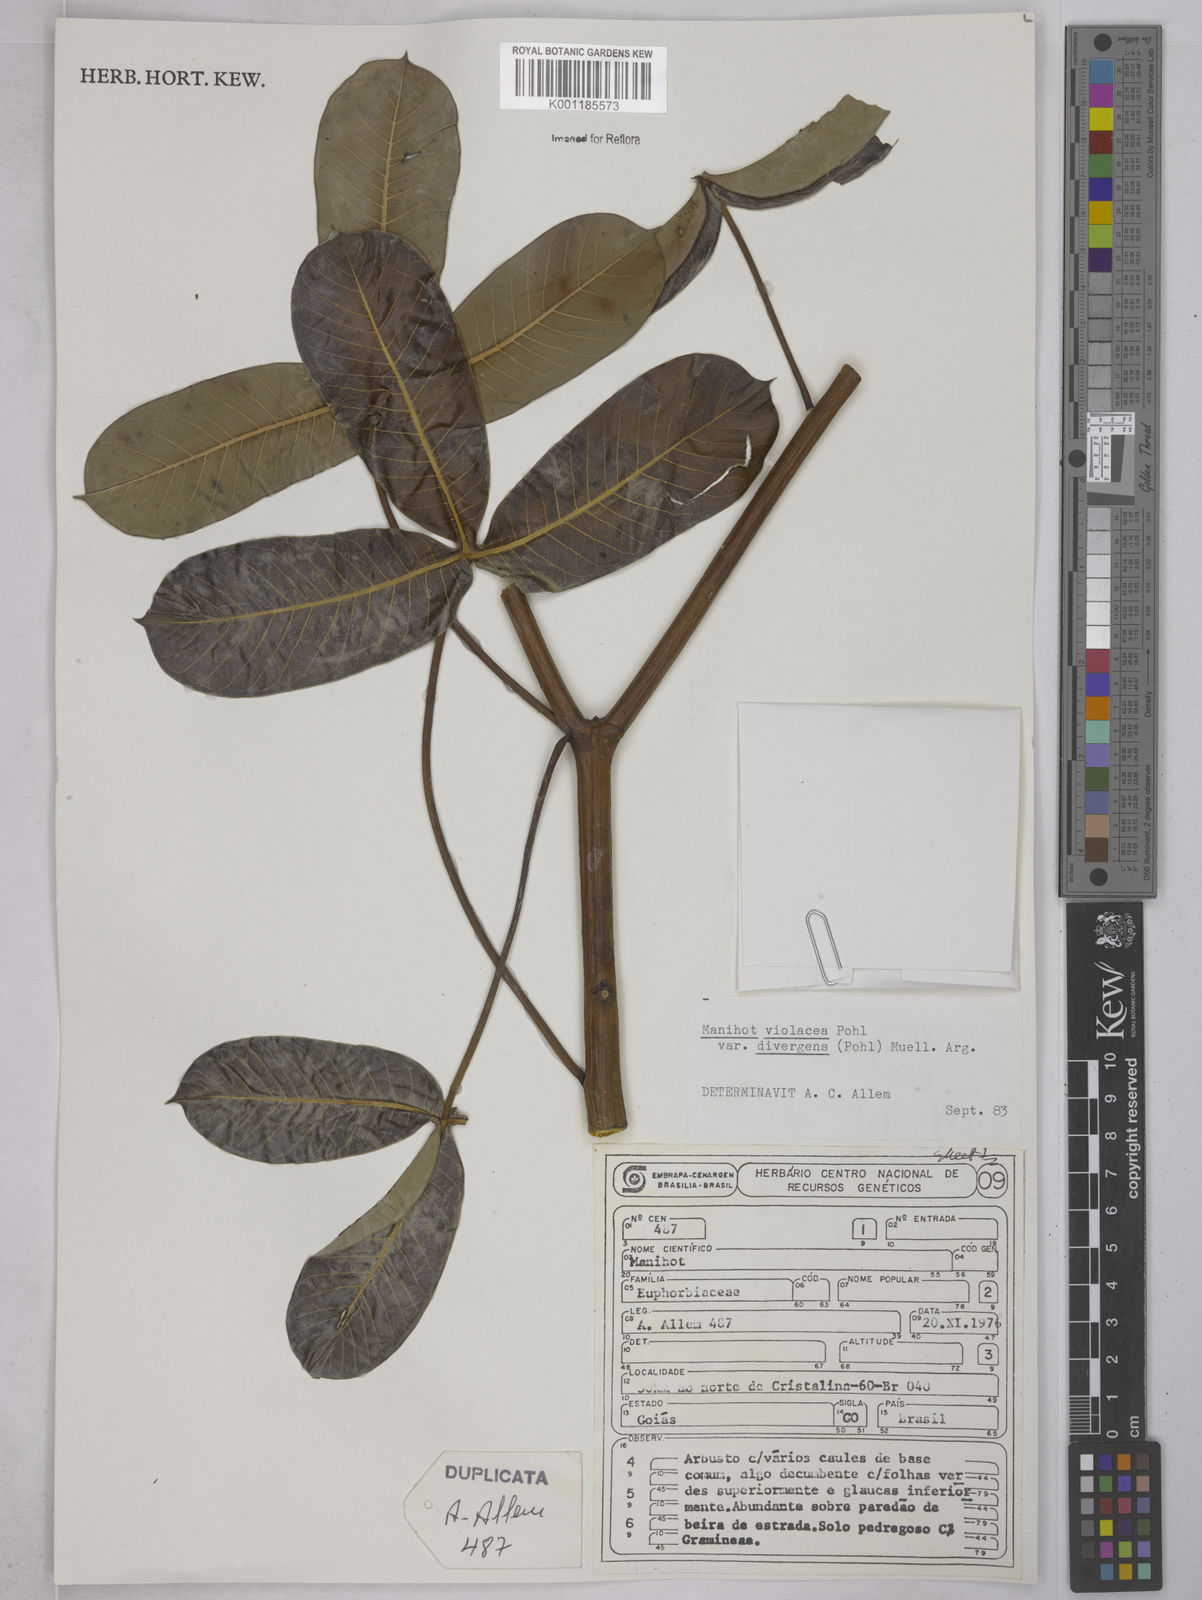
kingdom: Plantae
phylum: Tracheophyta
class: Magnoliopsida
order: Malpighiales
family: Euphorbiaceae
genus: Manihot
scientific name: Manihot divergens
